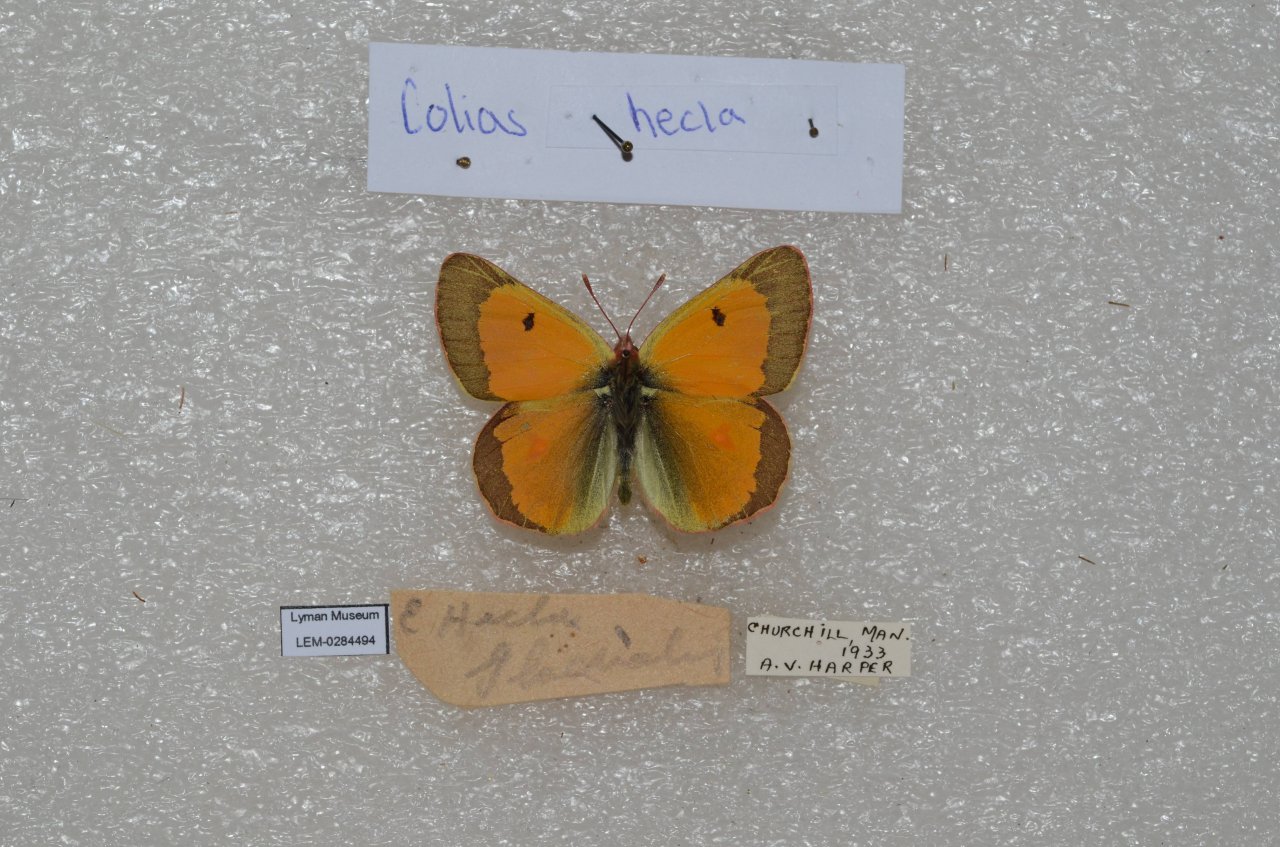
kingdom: Animalia
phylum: Arthropoda
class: Insecta
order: Lepidoptera
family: Pieridae
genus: Colias
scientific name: Colias hecla
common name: Hecla Sulphur
